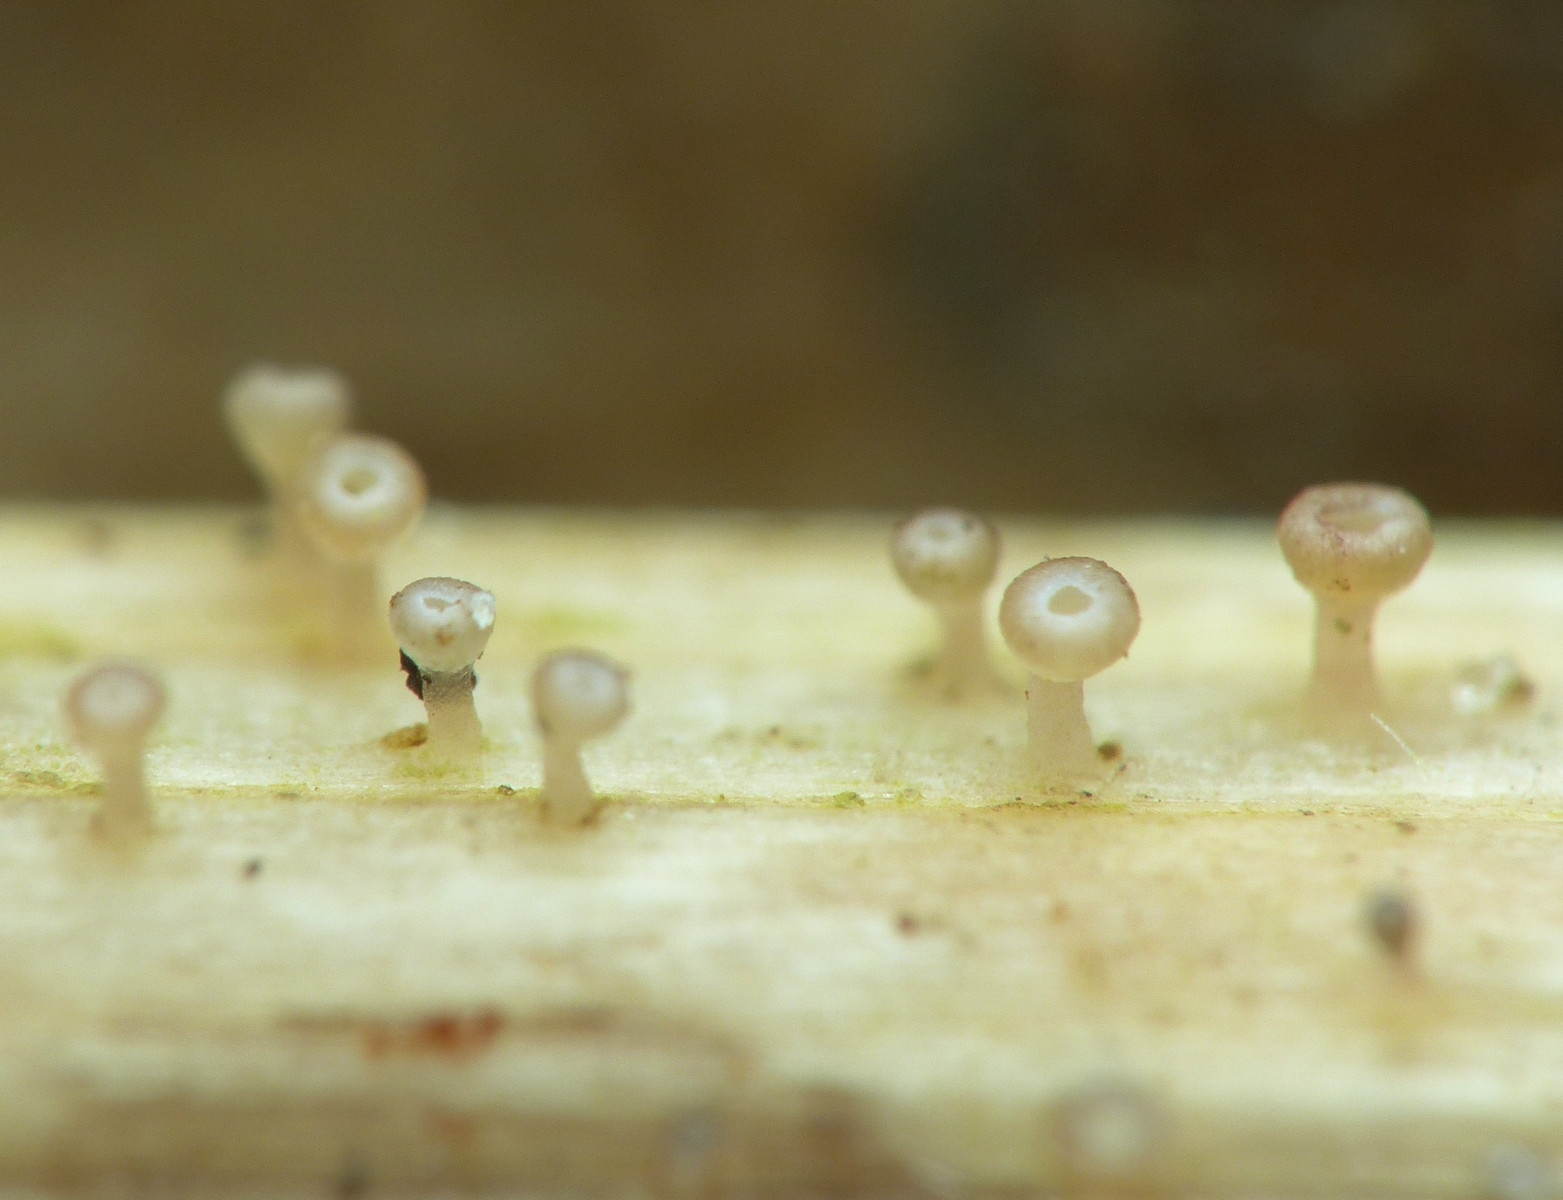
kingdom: Fungi
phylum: Ascomycota
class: Leotiomycetes
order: Helotiales
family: Helotiaceae
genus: Cyathicula
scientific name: Cyathicula cyathoidea
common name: pokal-stilkskive
